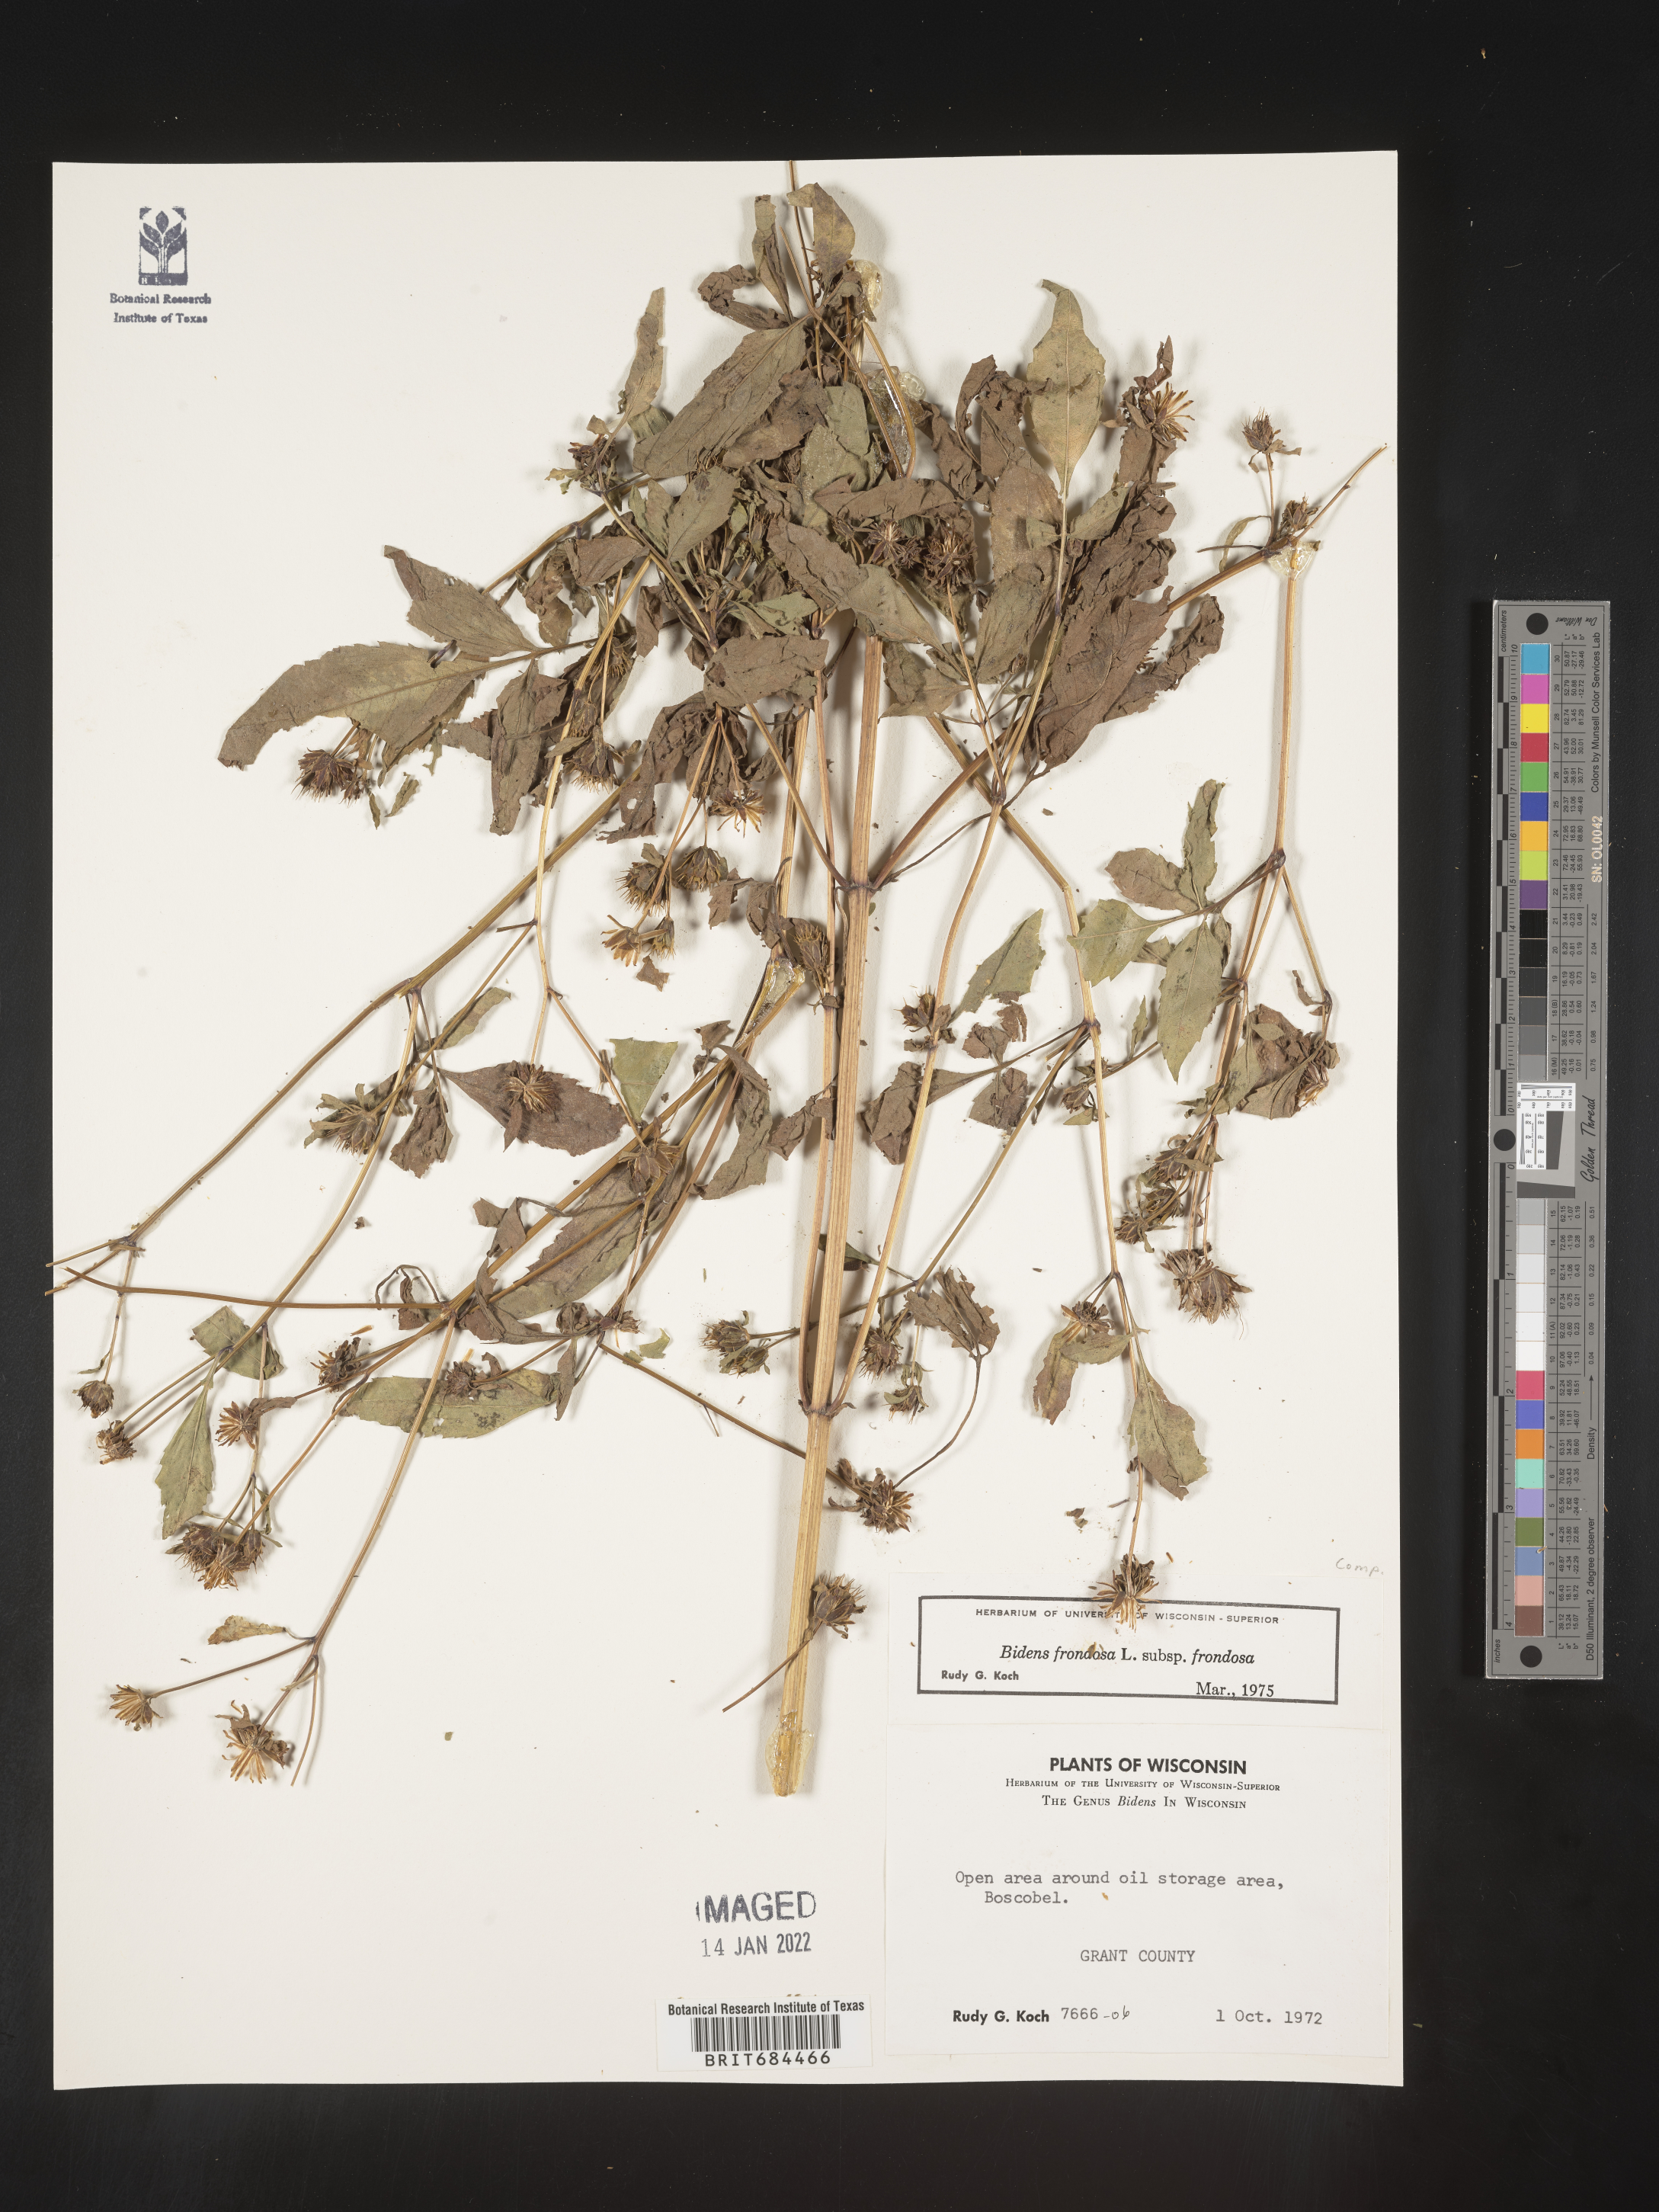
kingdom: Plantae
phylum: Tracheophyta
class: Magnoliopsida
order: Asterales
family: Asteraceae
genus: Bidens
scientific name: Bidens frondosa
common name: Beggarticks
